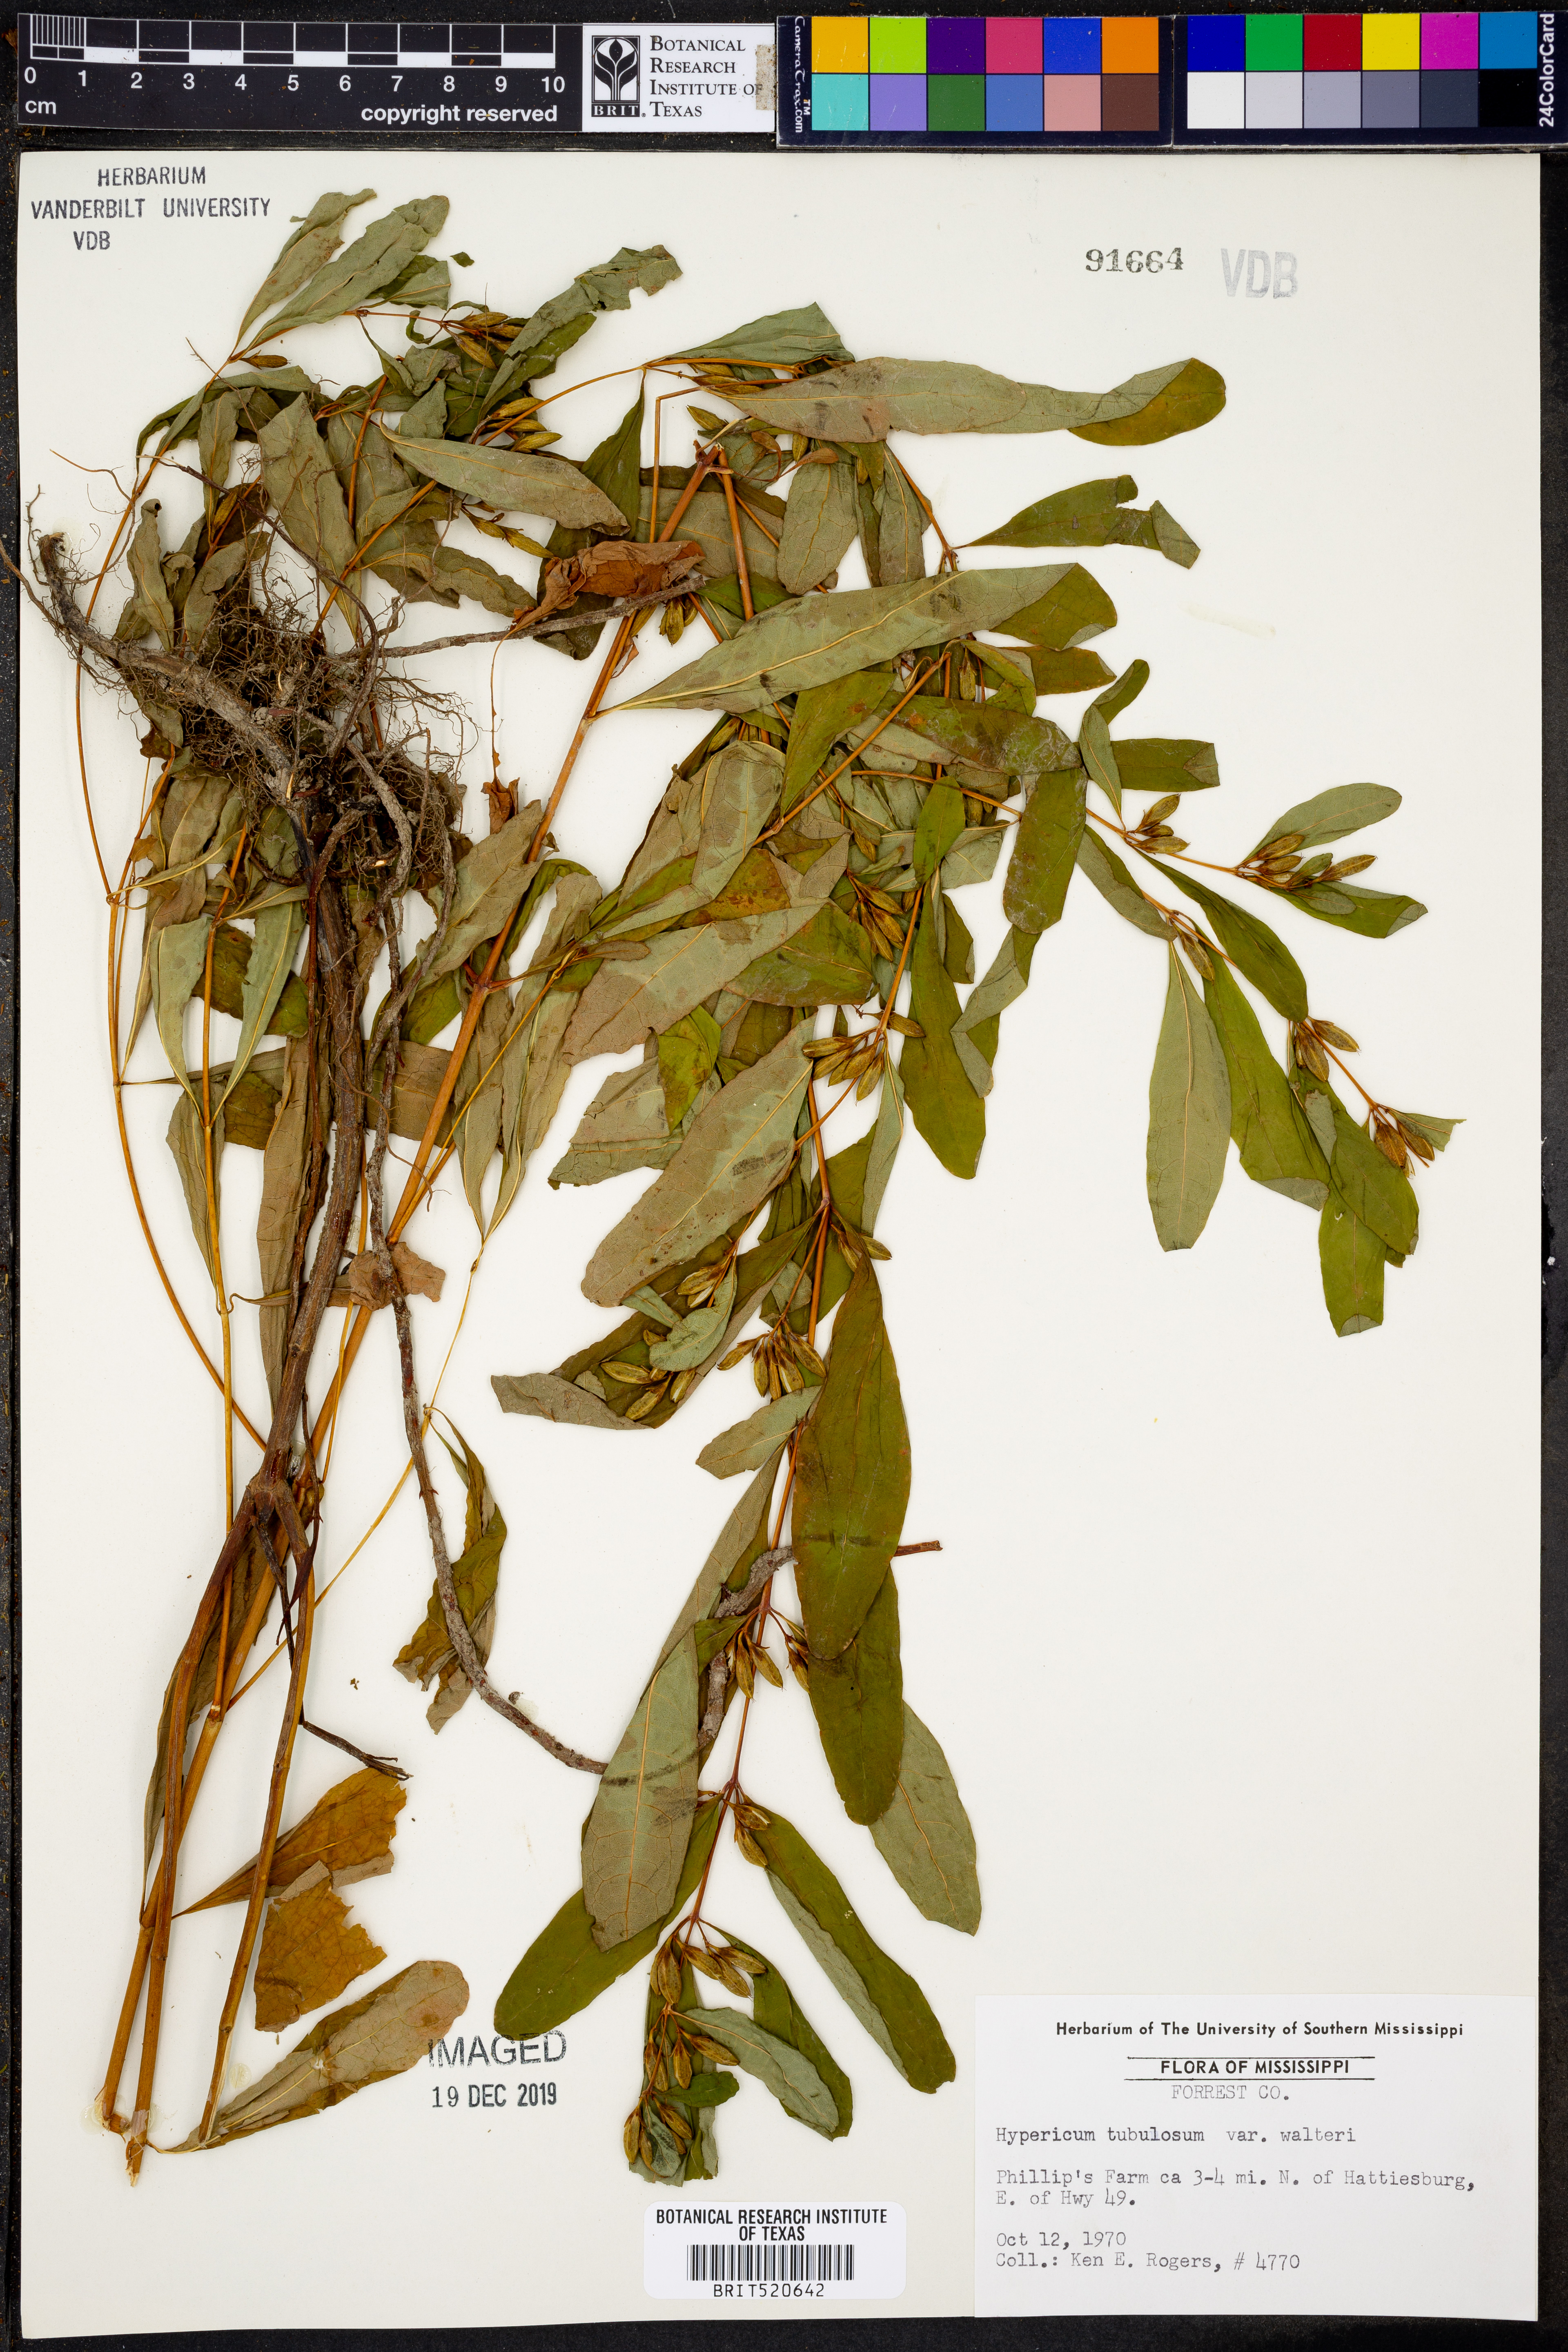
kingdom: Plantae
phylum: Tracheophyta
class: Magnoliopsida
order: Malpighiales
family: Hypericaceae
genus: Triadenum
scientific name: Triadenum walteri
